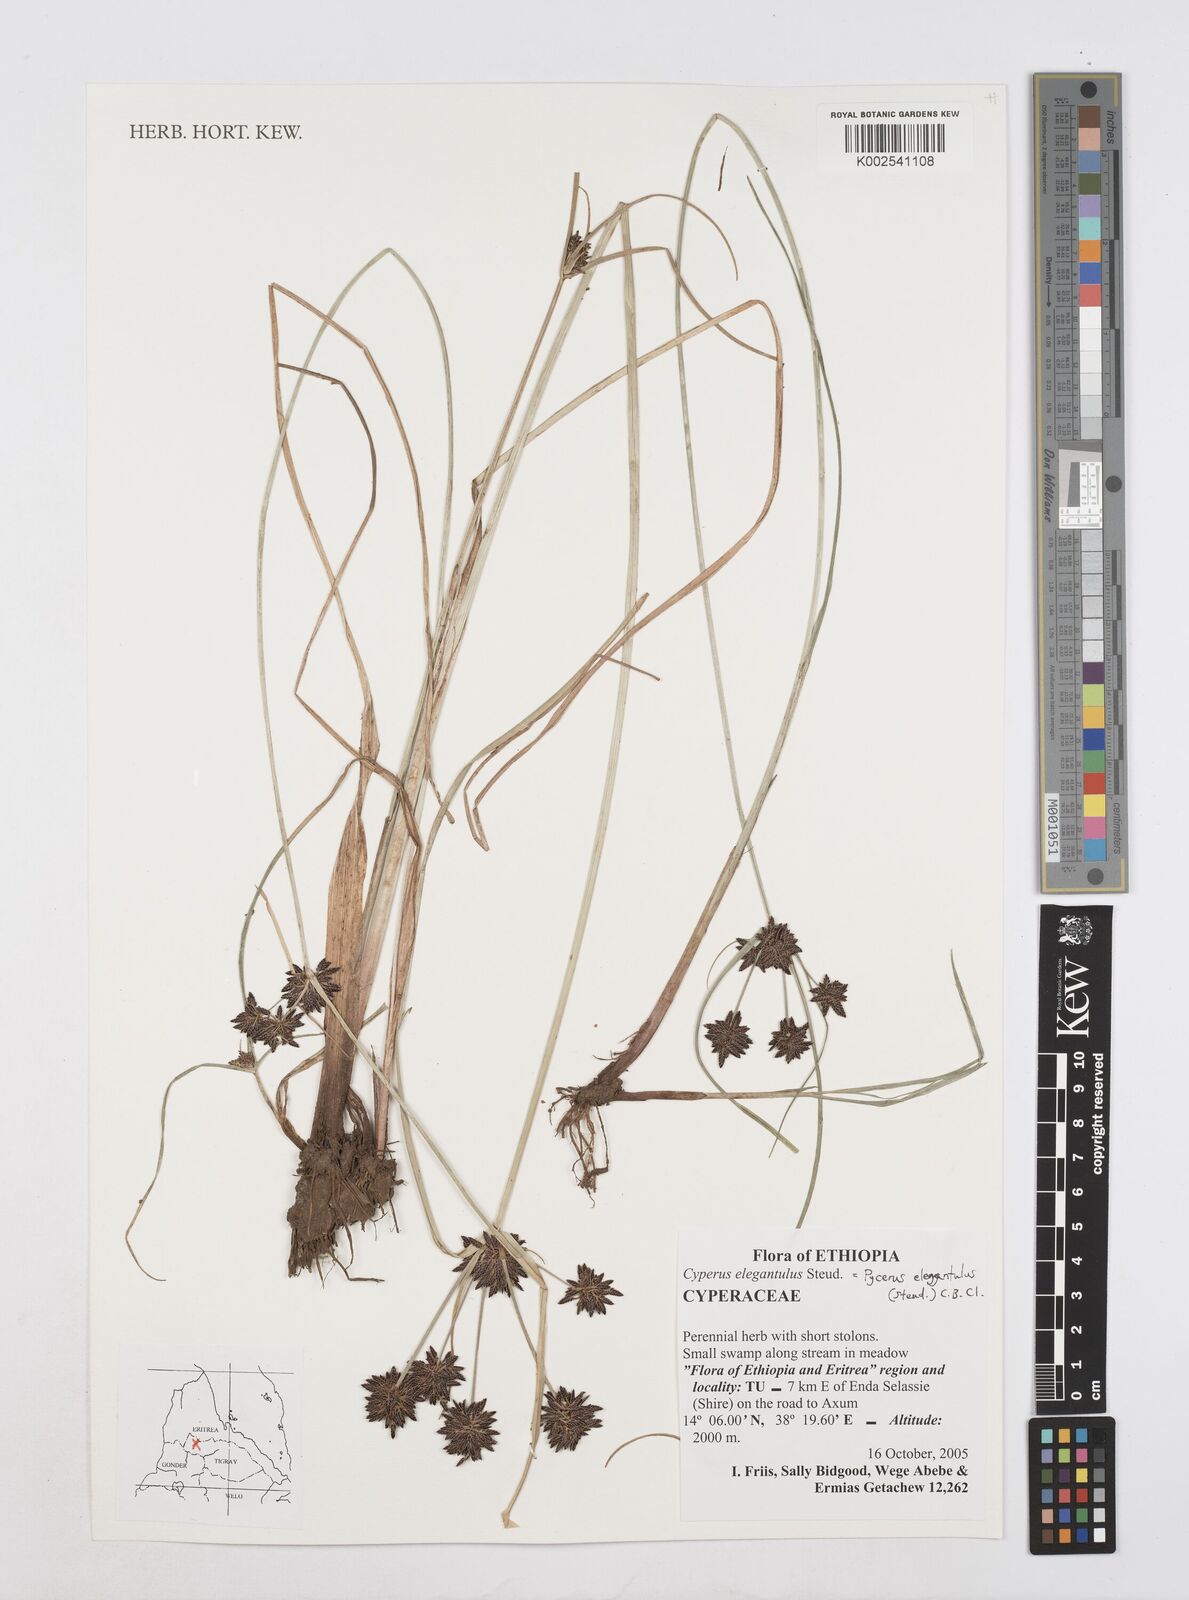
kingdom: Plantae
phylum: Tracheophyta
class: Liliopsida
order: Poales
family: Cyperaceae
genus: Cyperus
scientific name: Cyperus elegantulus
